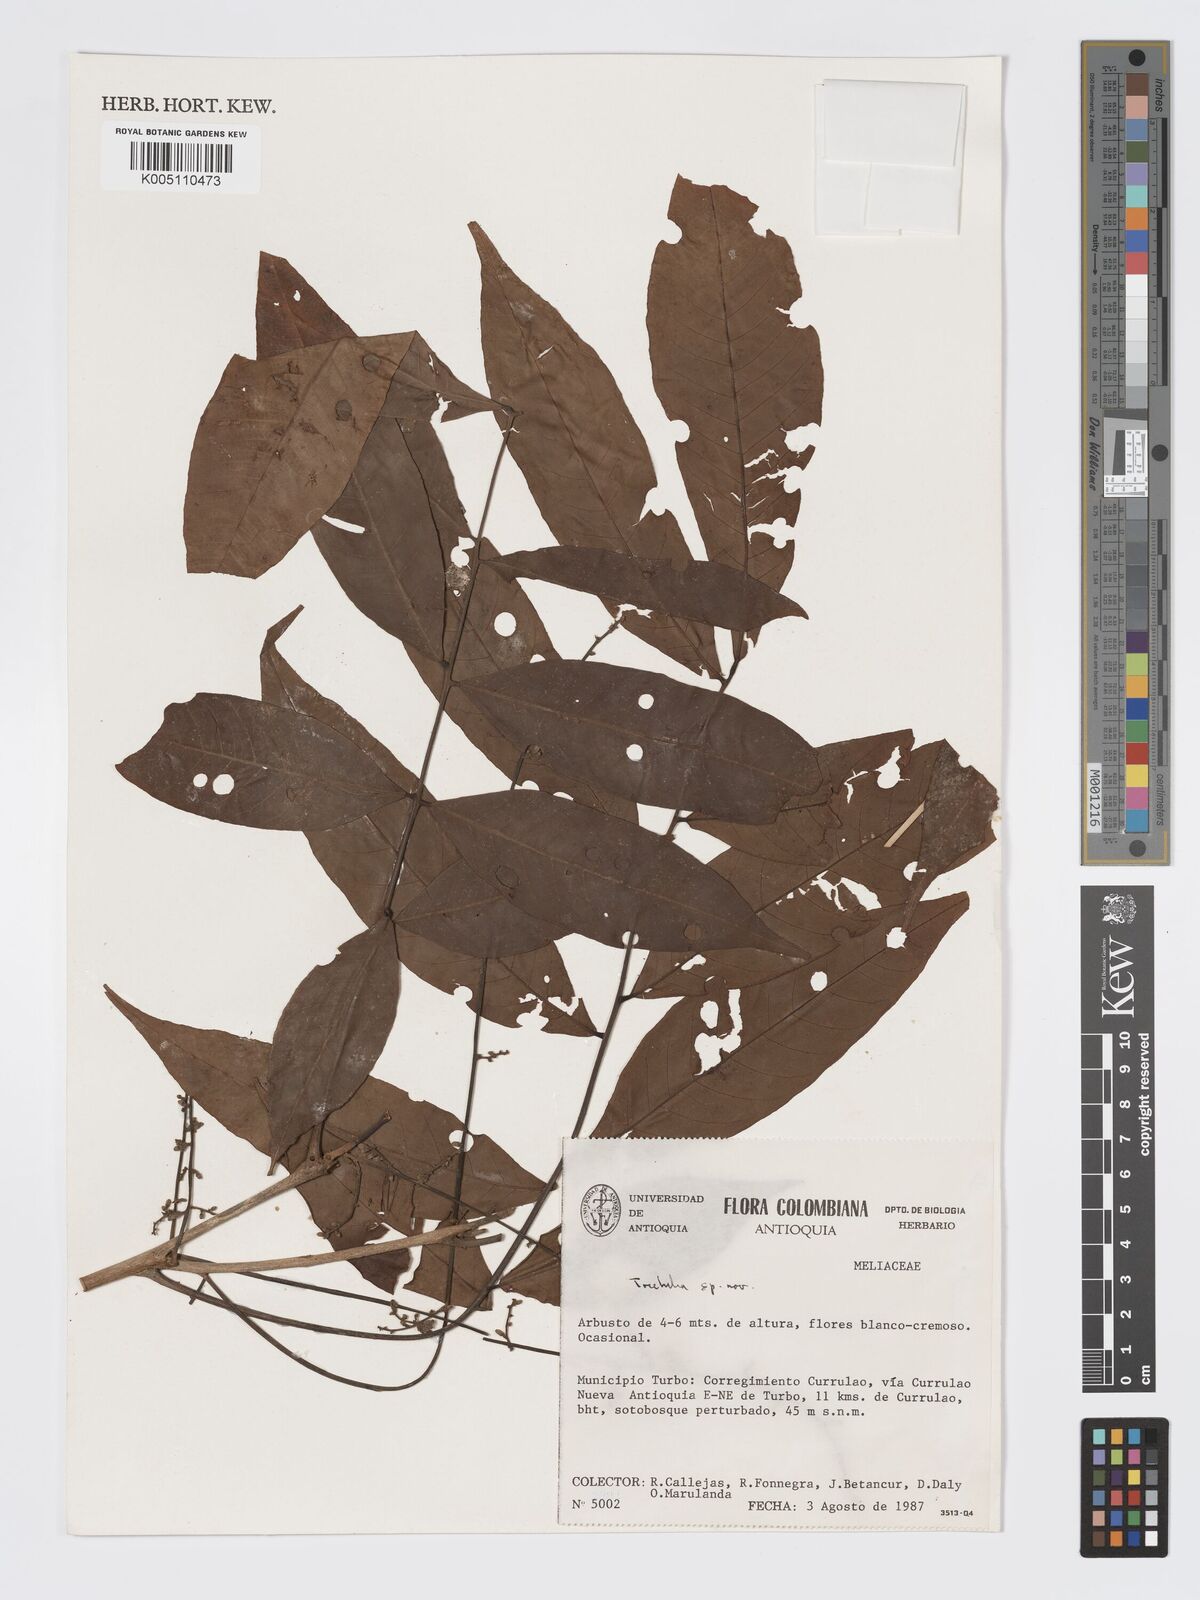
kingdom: Plantae
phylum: Tracheophyta
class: Magnoliopsida
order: Sapindales
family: Meliaceae
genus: Trichilia
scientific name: Trichilia
